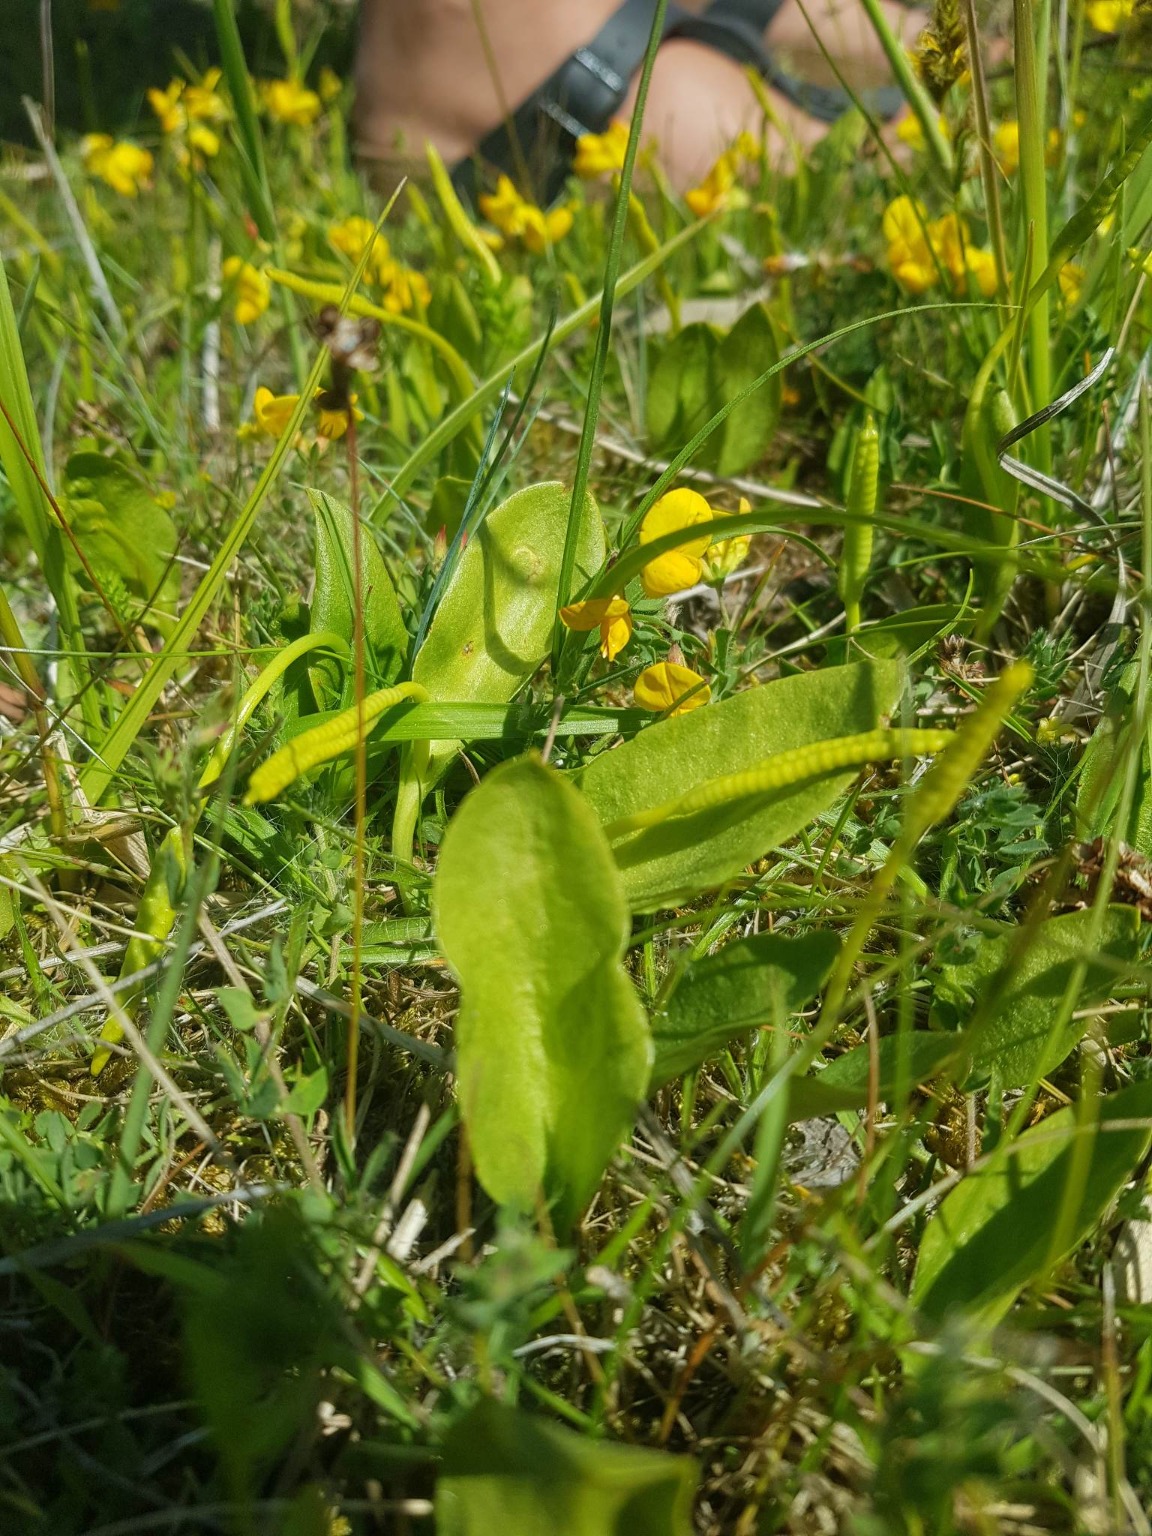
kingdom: Plantae
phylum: Tracheophyta
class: Polypodiopsida
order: Ophioglossales
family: Ophioglossaceae
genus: Ophioglossum
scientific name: Ophioglossum vulgatum
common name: Slangetunge
